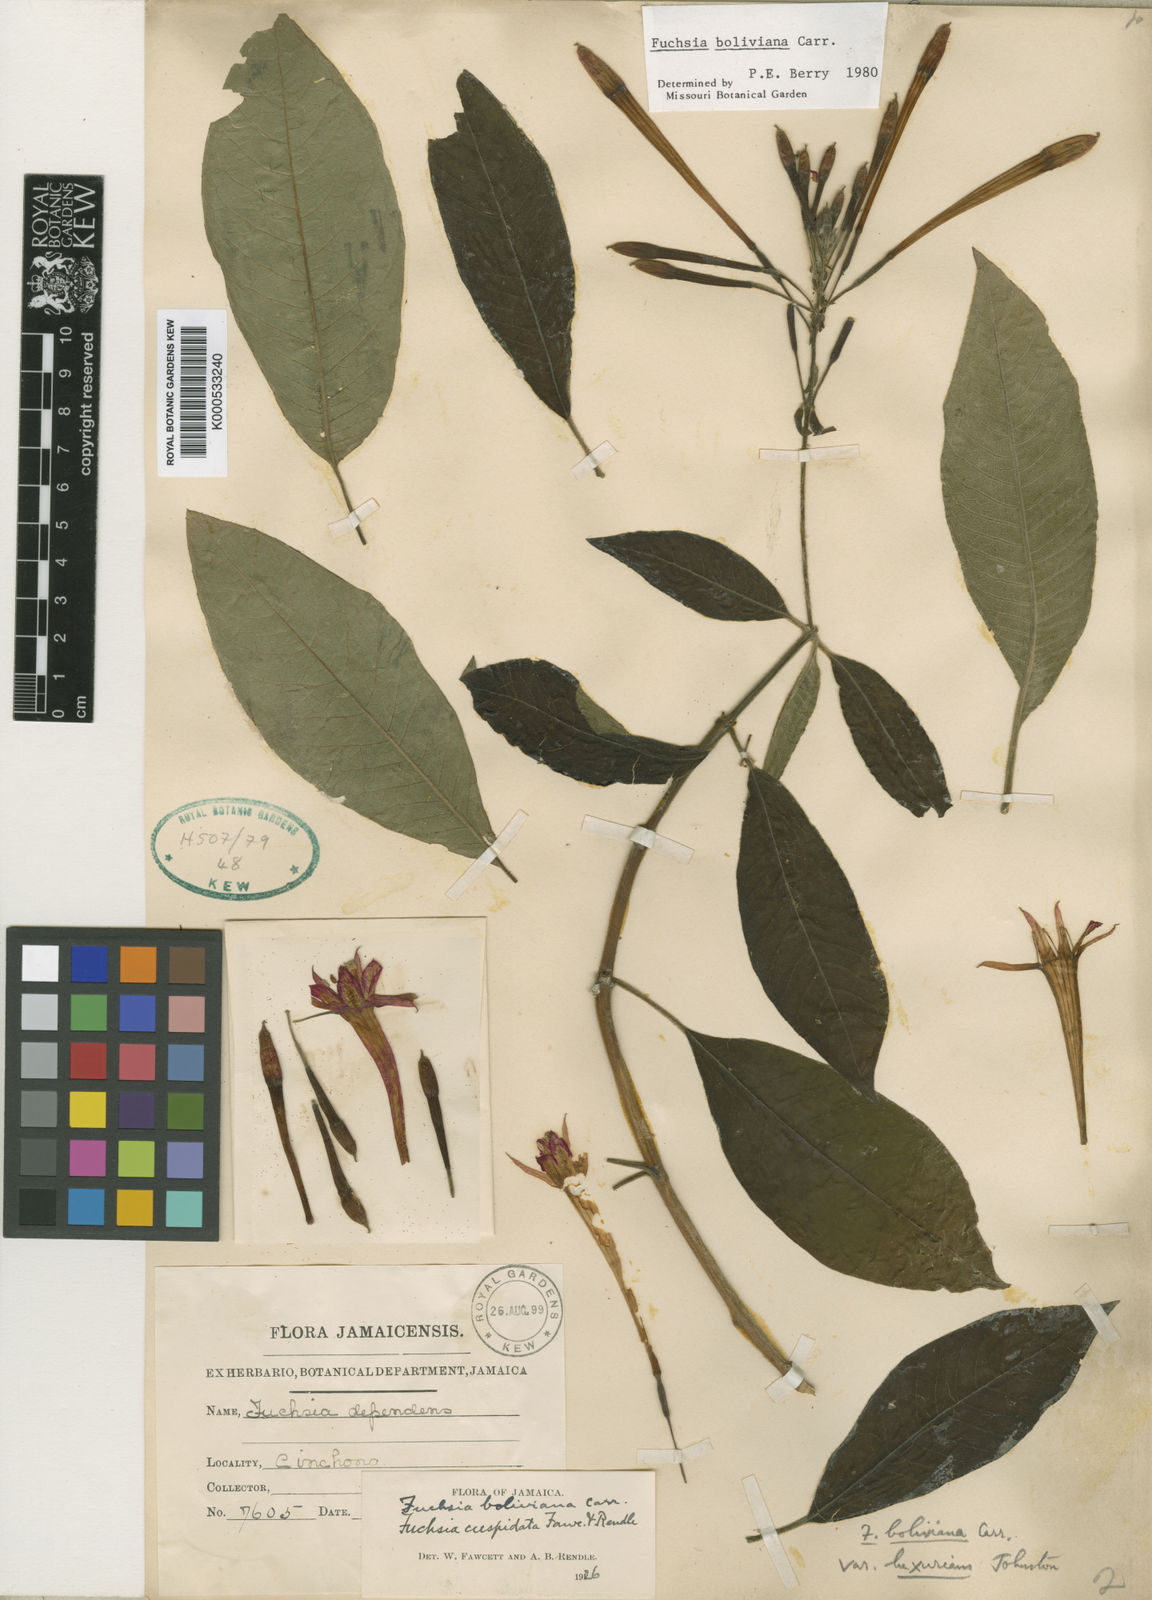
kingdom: Plantae
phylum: Tracheophyta
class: Magnoliopsida
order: Myrtales
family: Onagraceae
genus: Fuchsia
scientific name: Fuchsia
